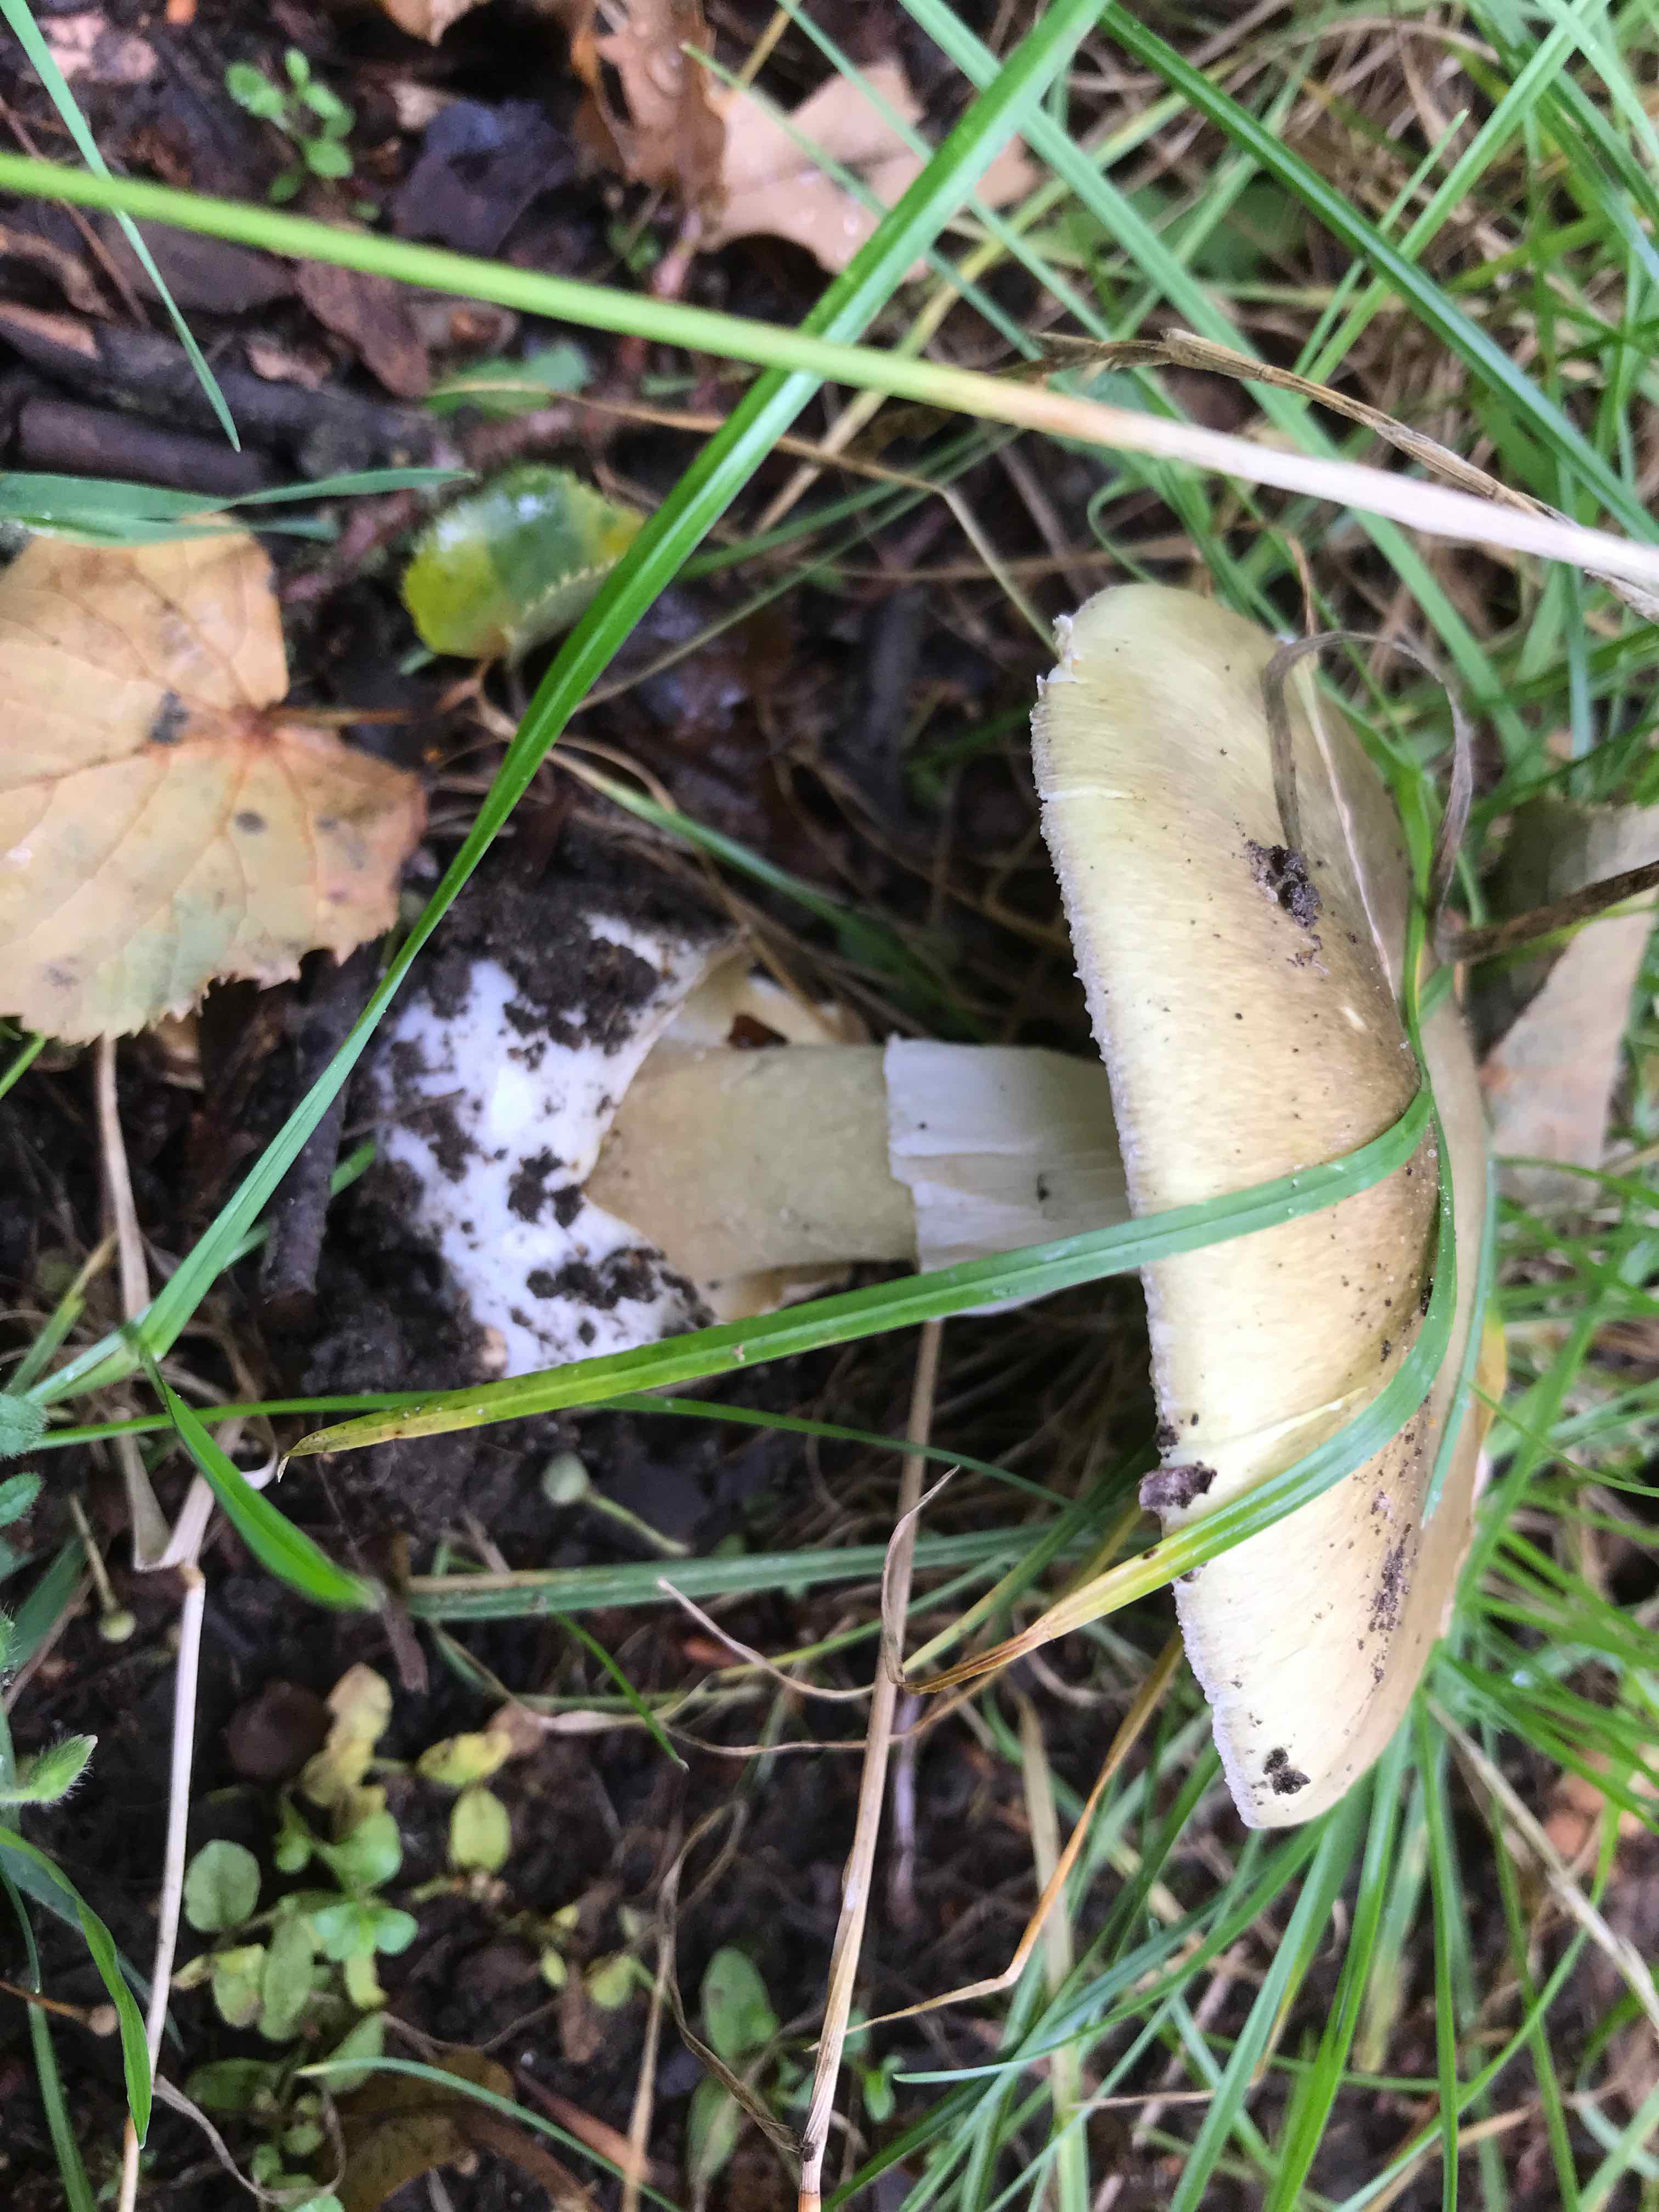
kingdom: Fungi
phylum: Basidiomycota
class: Agaricomycetes
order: Agaricales
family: Amanitaceae
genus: Amanita
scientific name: Amanita phalloides
